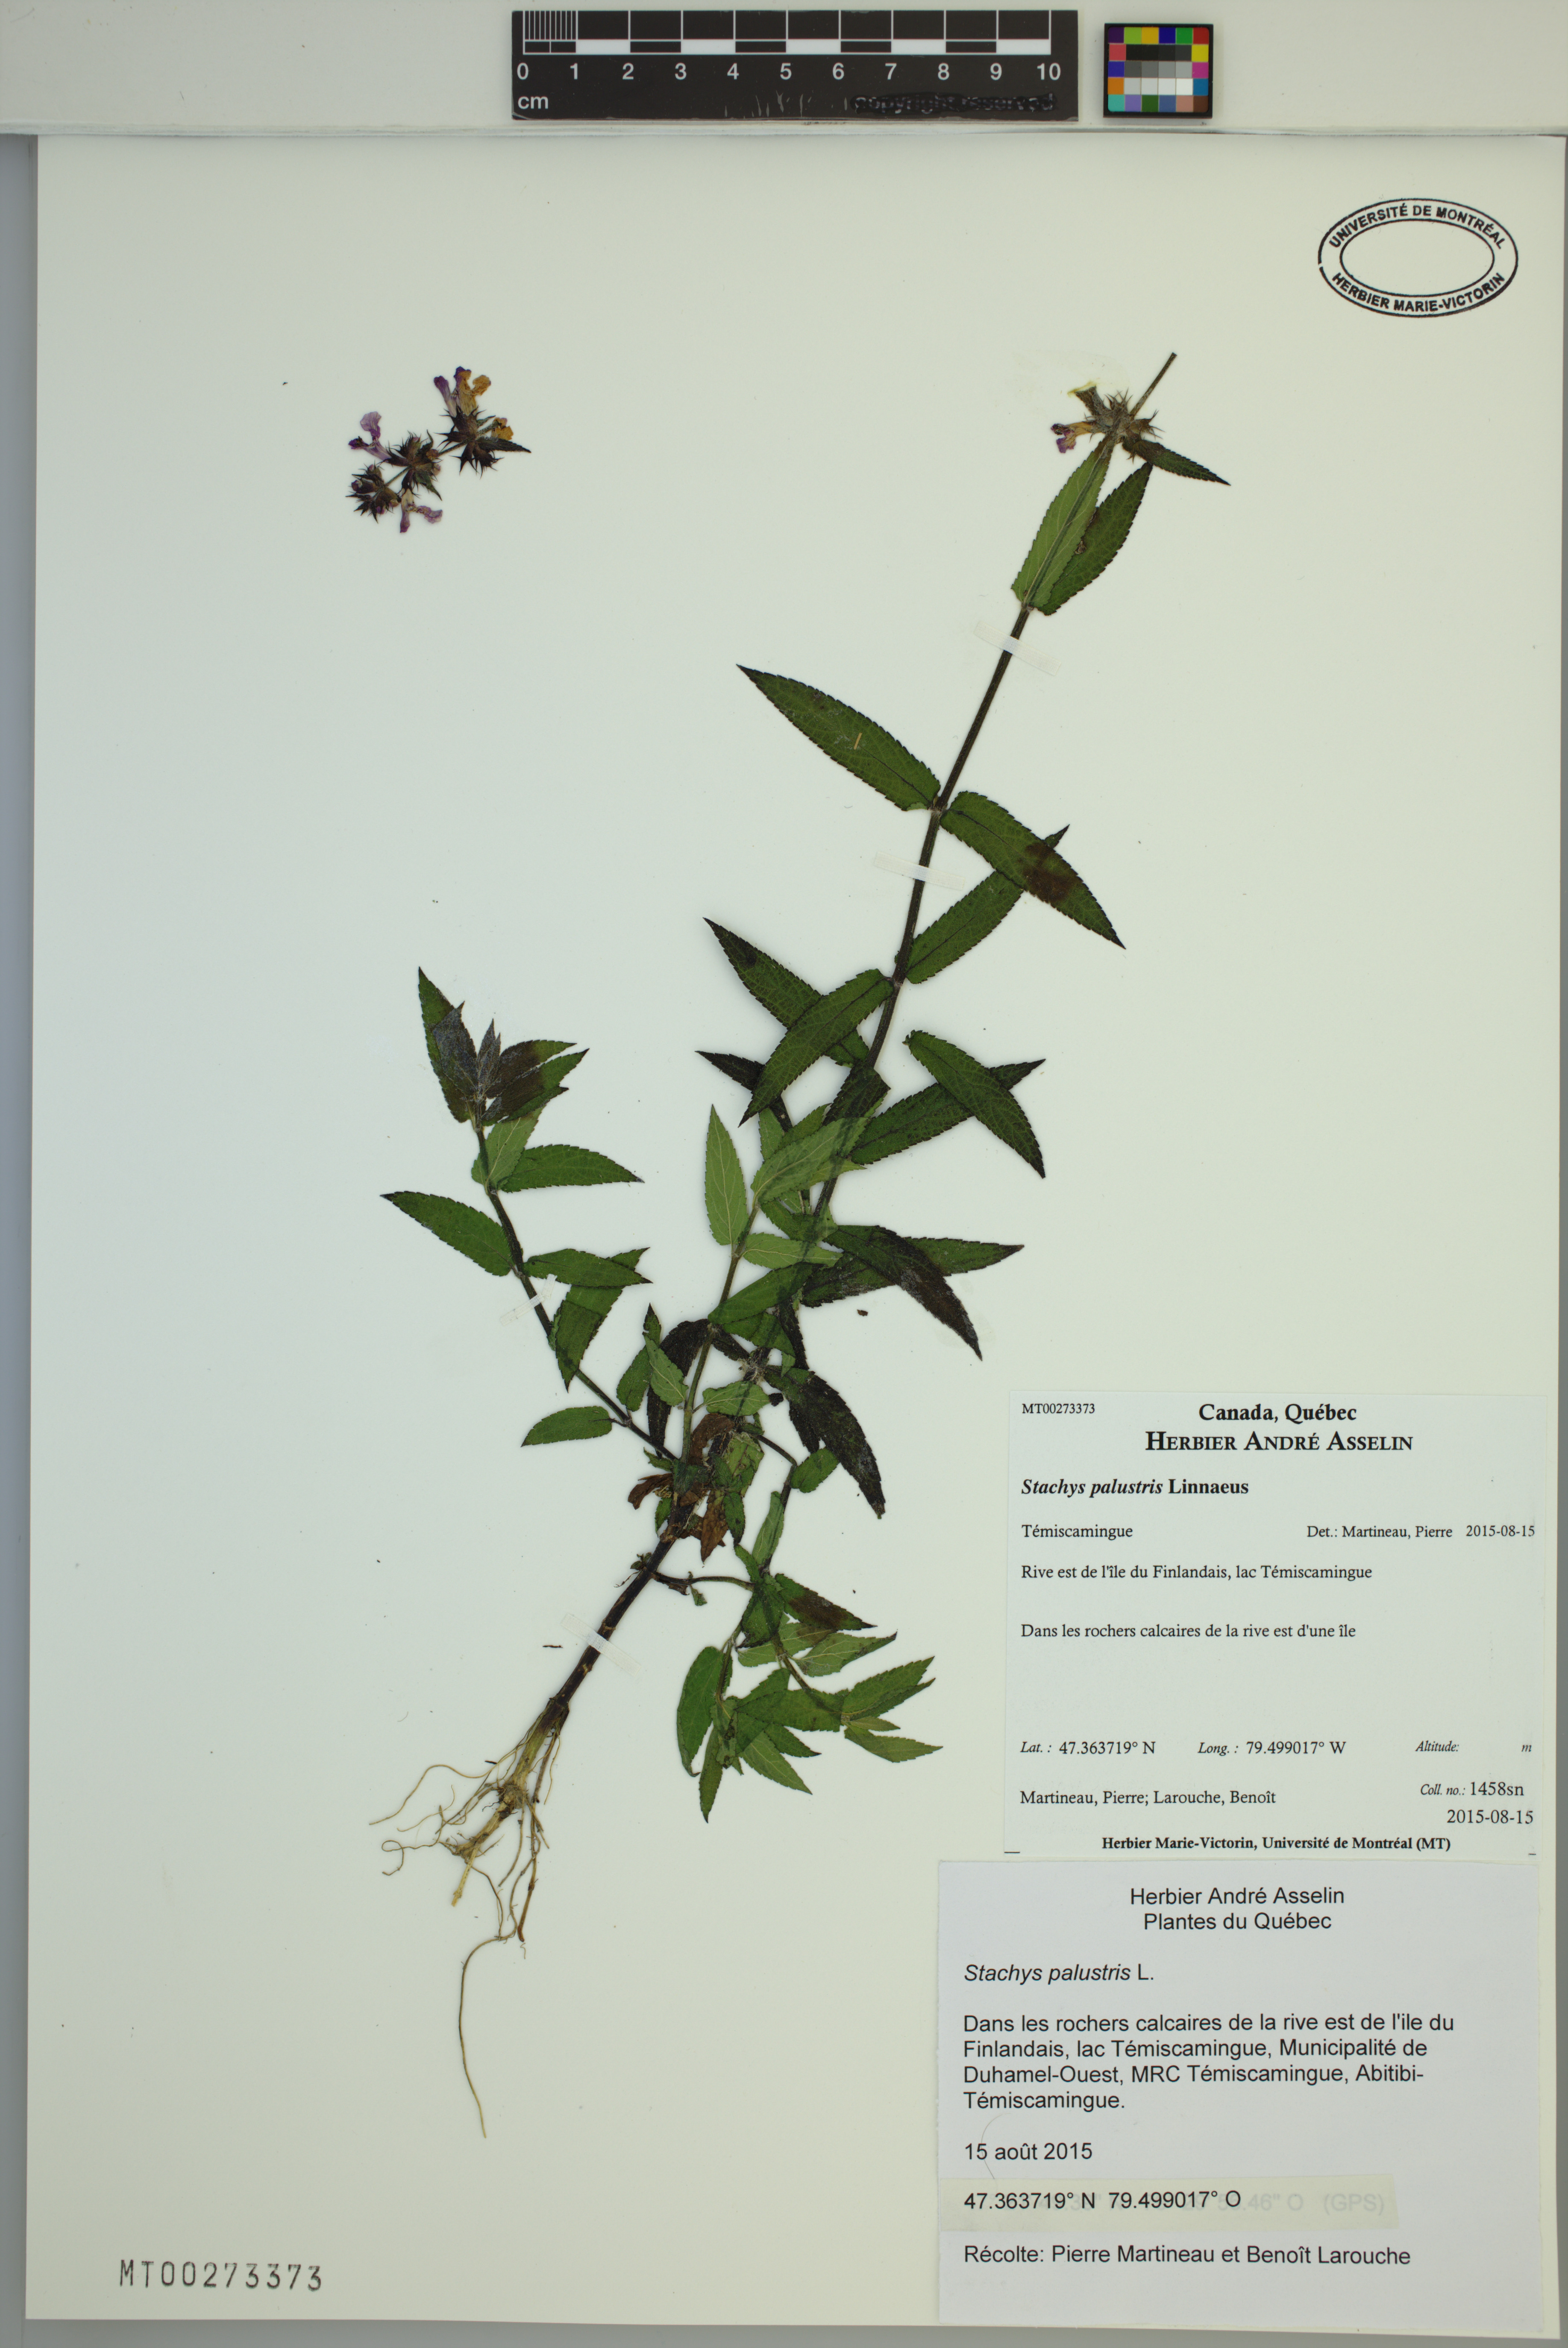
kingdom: Plantae
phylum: Tracheophyta
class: Magnoliopsida
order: Lamiales
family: Lamiaceae
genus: Stachys
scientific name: Stachys palustris
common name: Marsh woundwort
